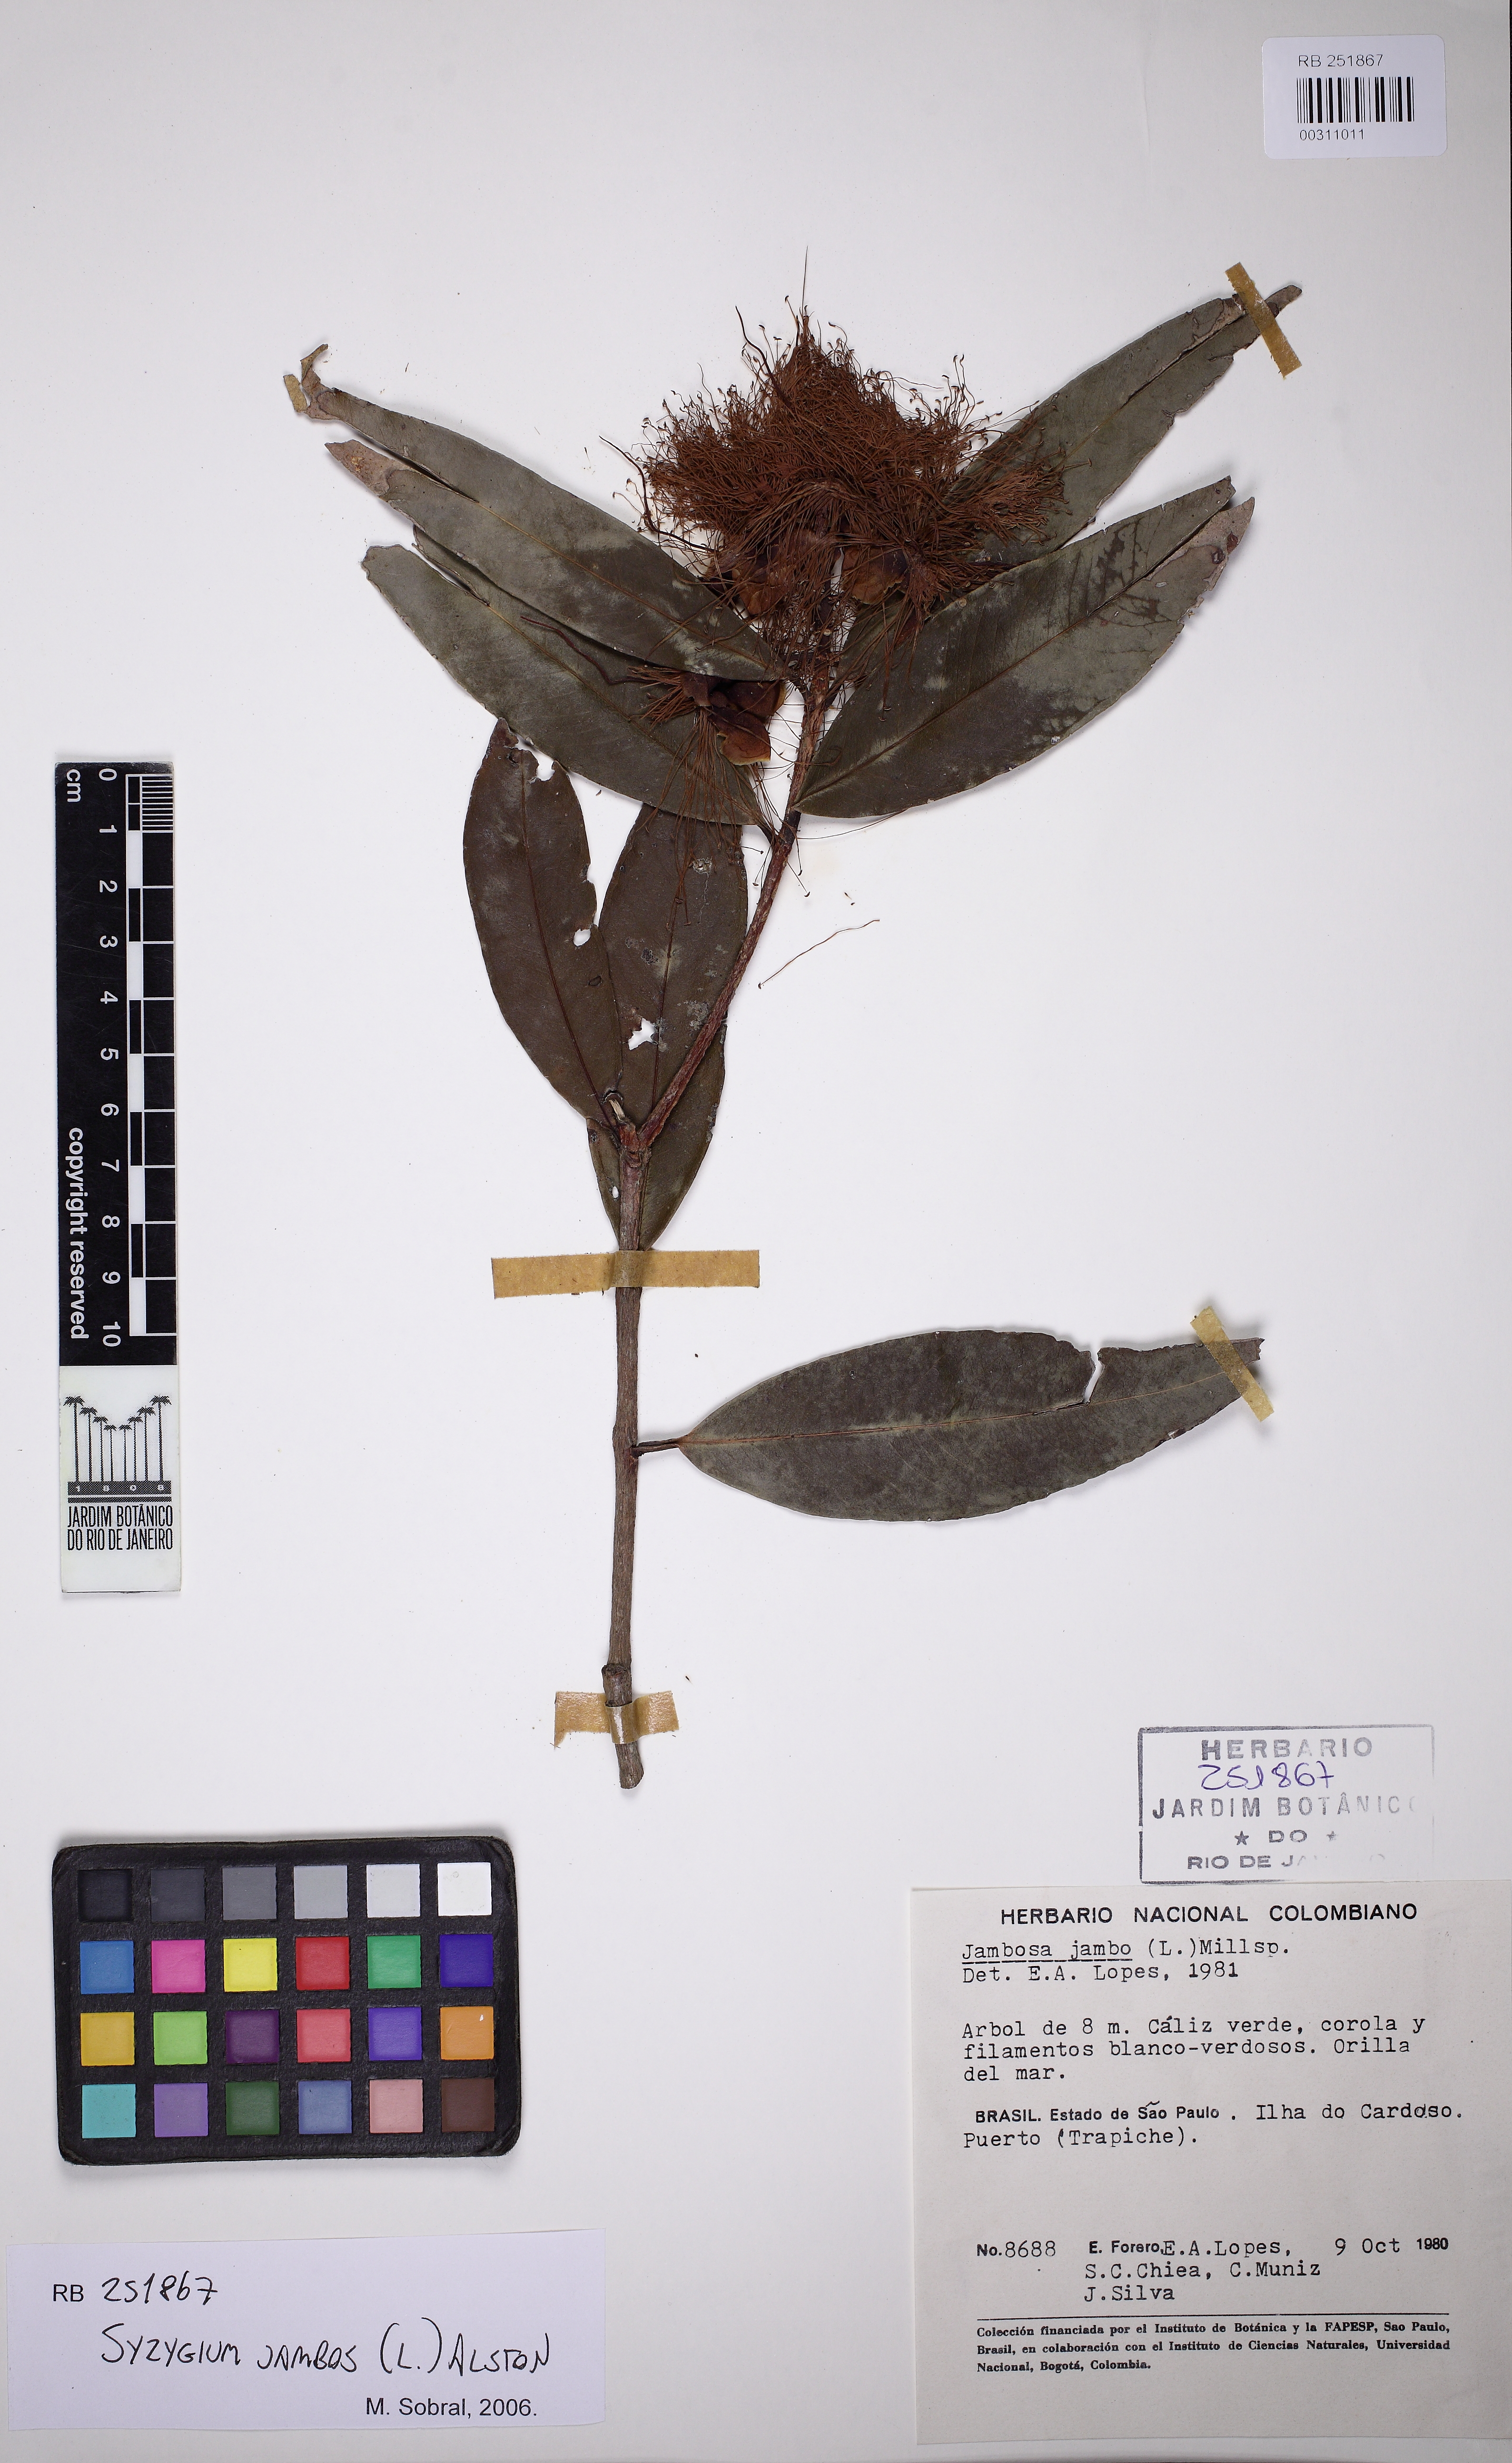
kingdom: Plantae
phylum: Tracheophyta
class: Magnoliopsida
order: Myrtales
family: Myrtaceae
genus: Syzygium
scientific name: Syzygium jambos
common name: Malabar plum
